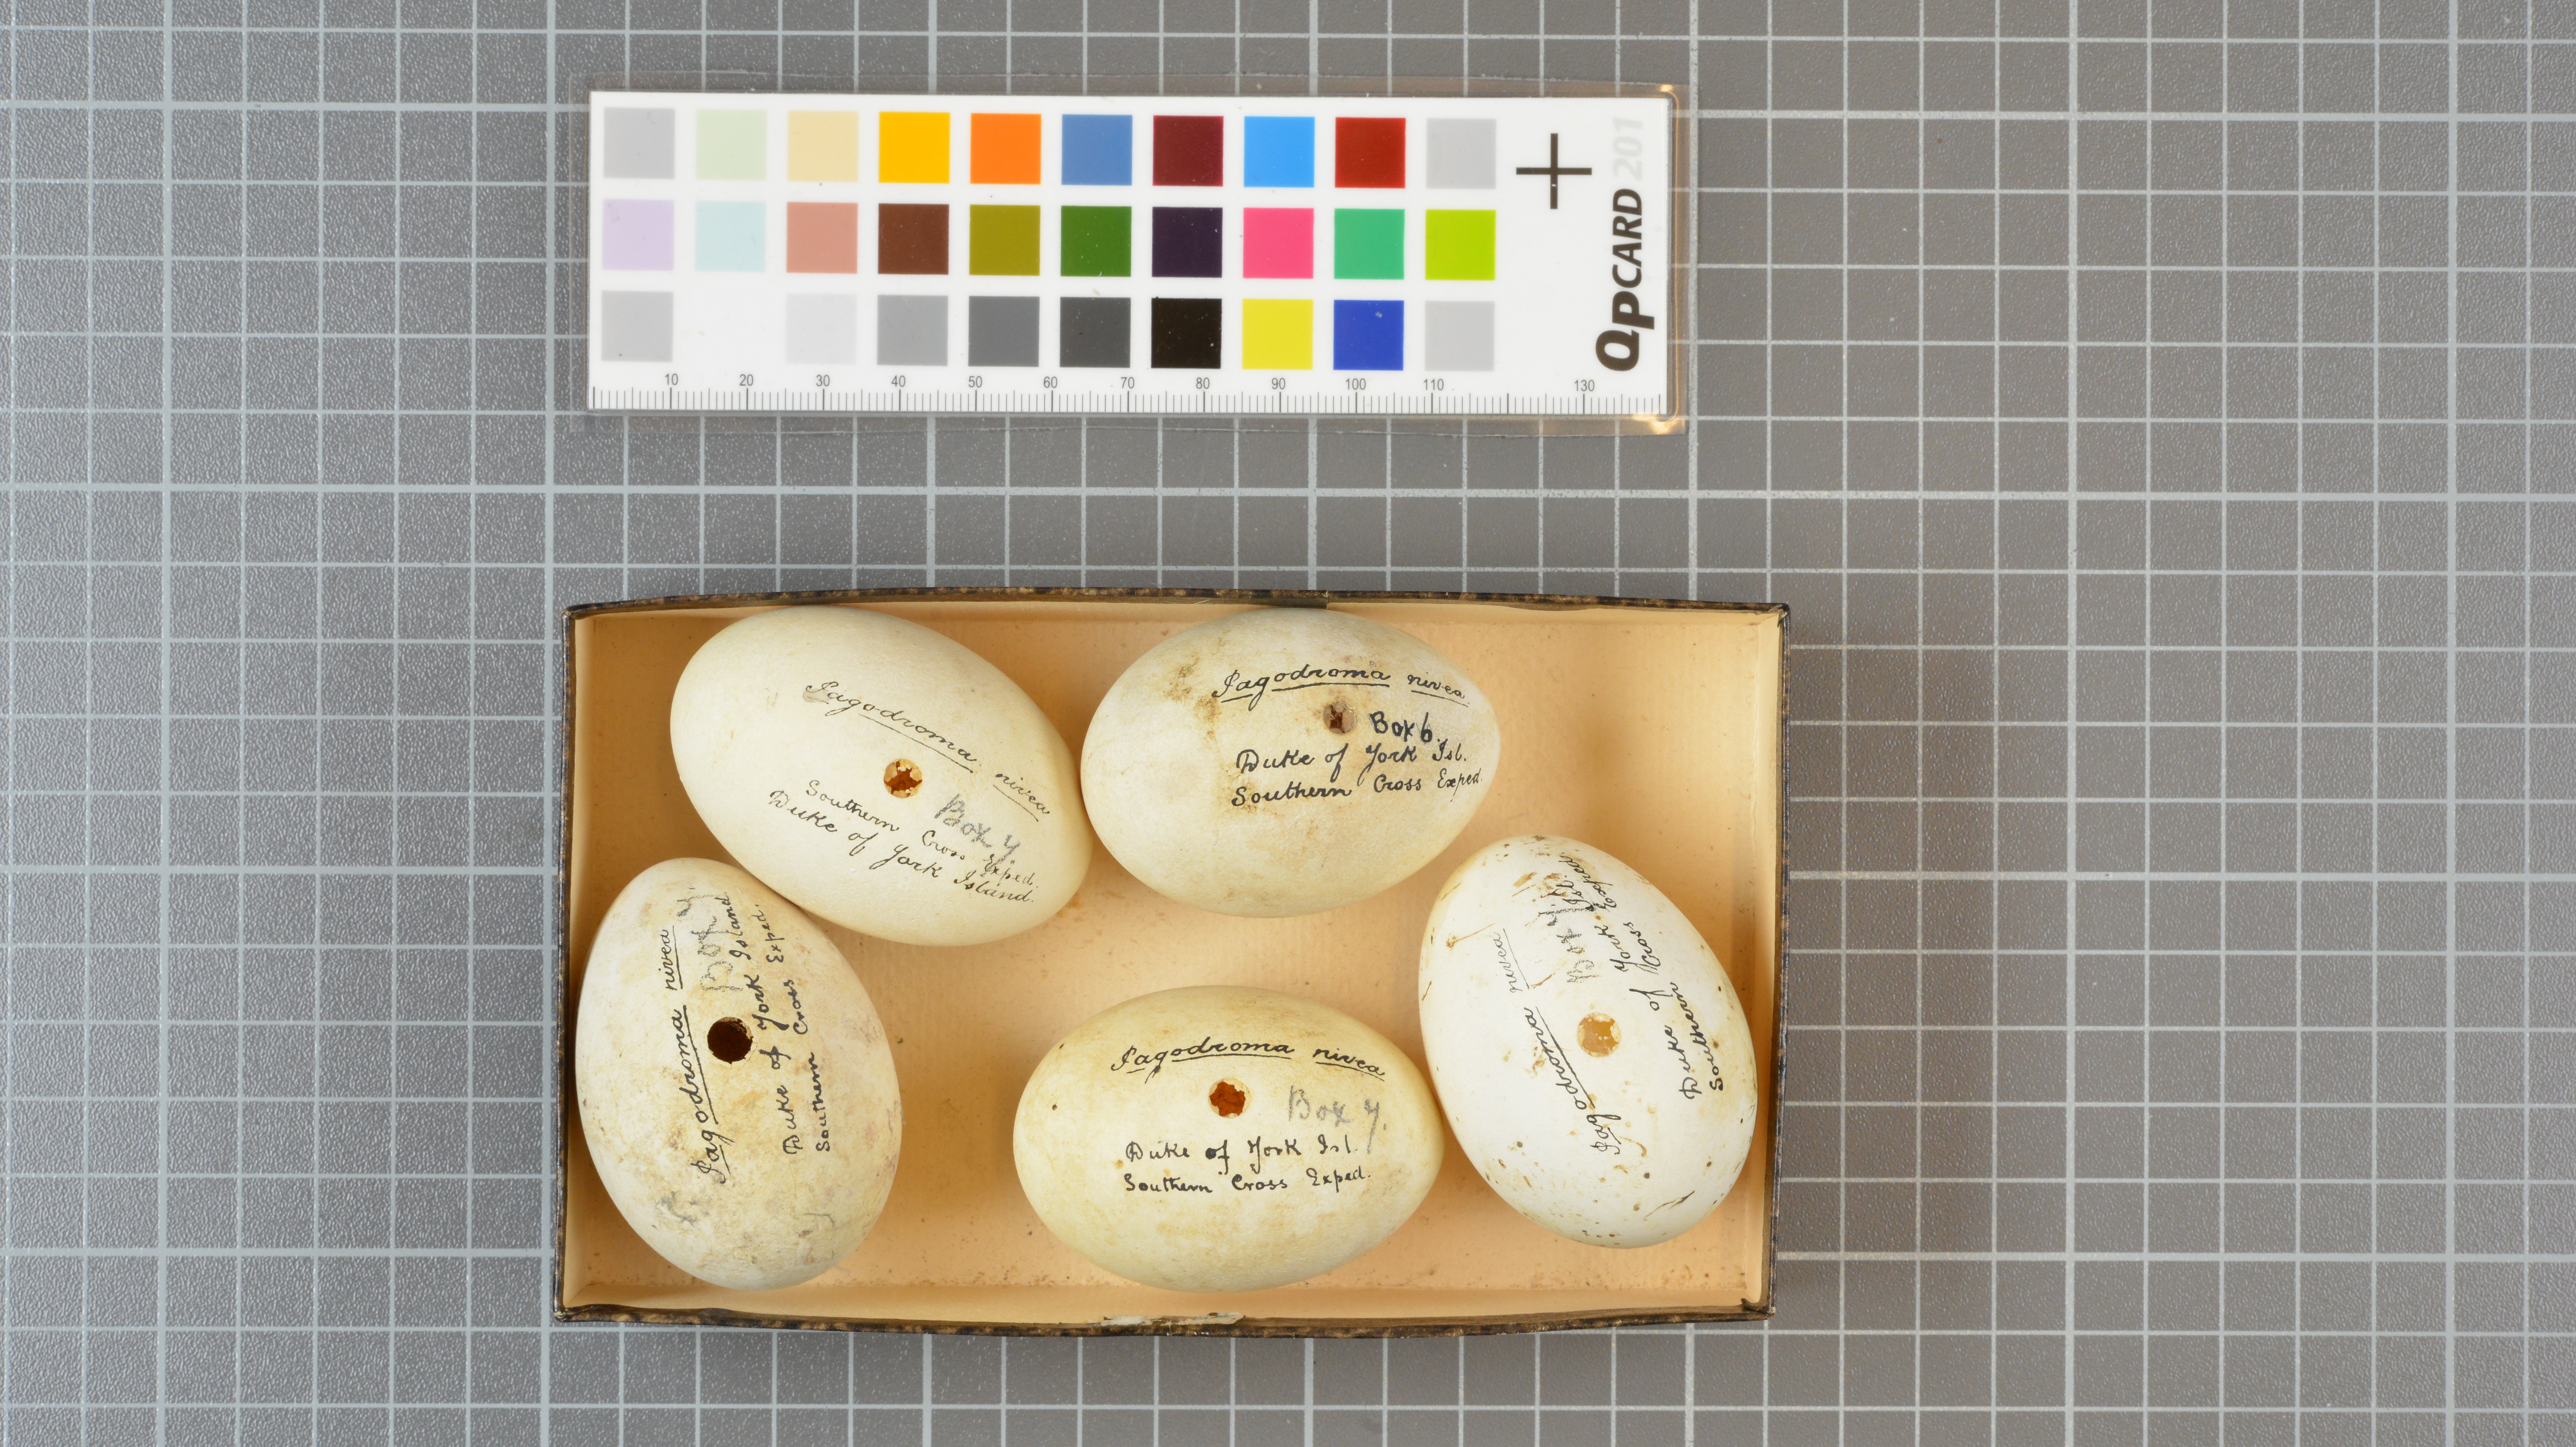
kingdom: Animalia
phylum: Chordata
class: Aves
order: Procellariiformes
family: Procellariidae
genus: Pagodroma
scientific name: Pagodroma nivea
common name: Snow petrel
